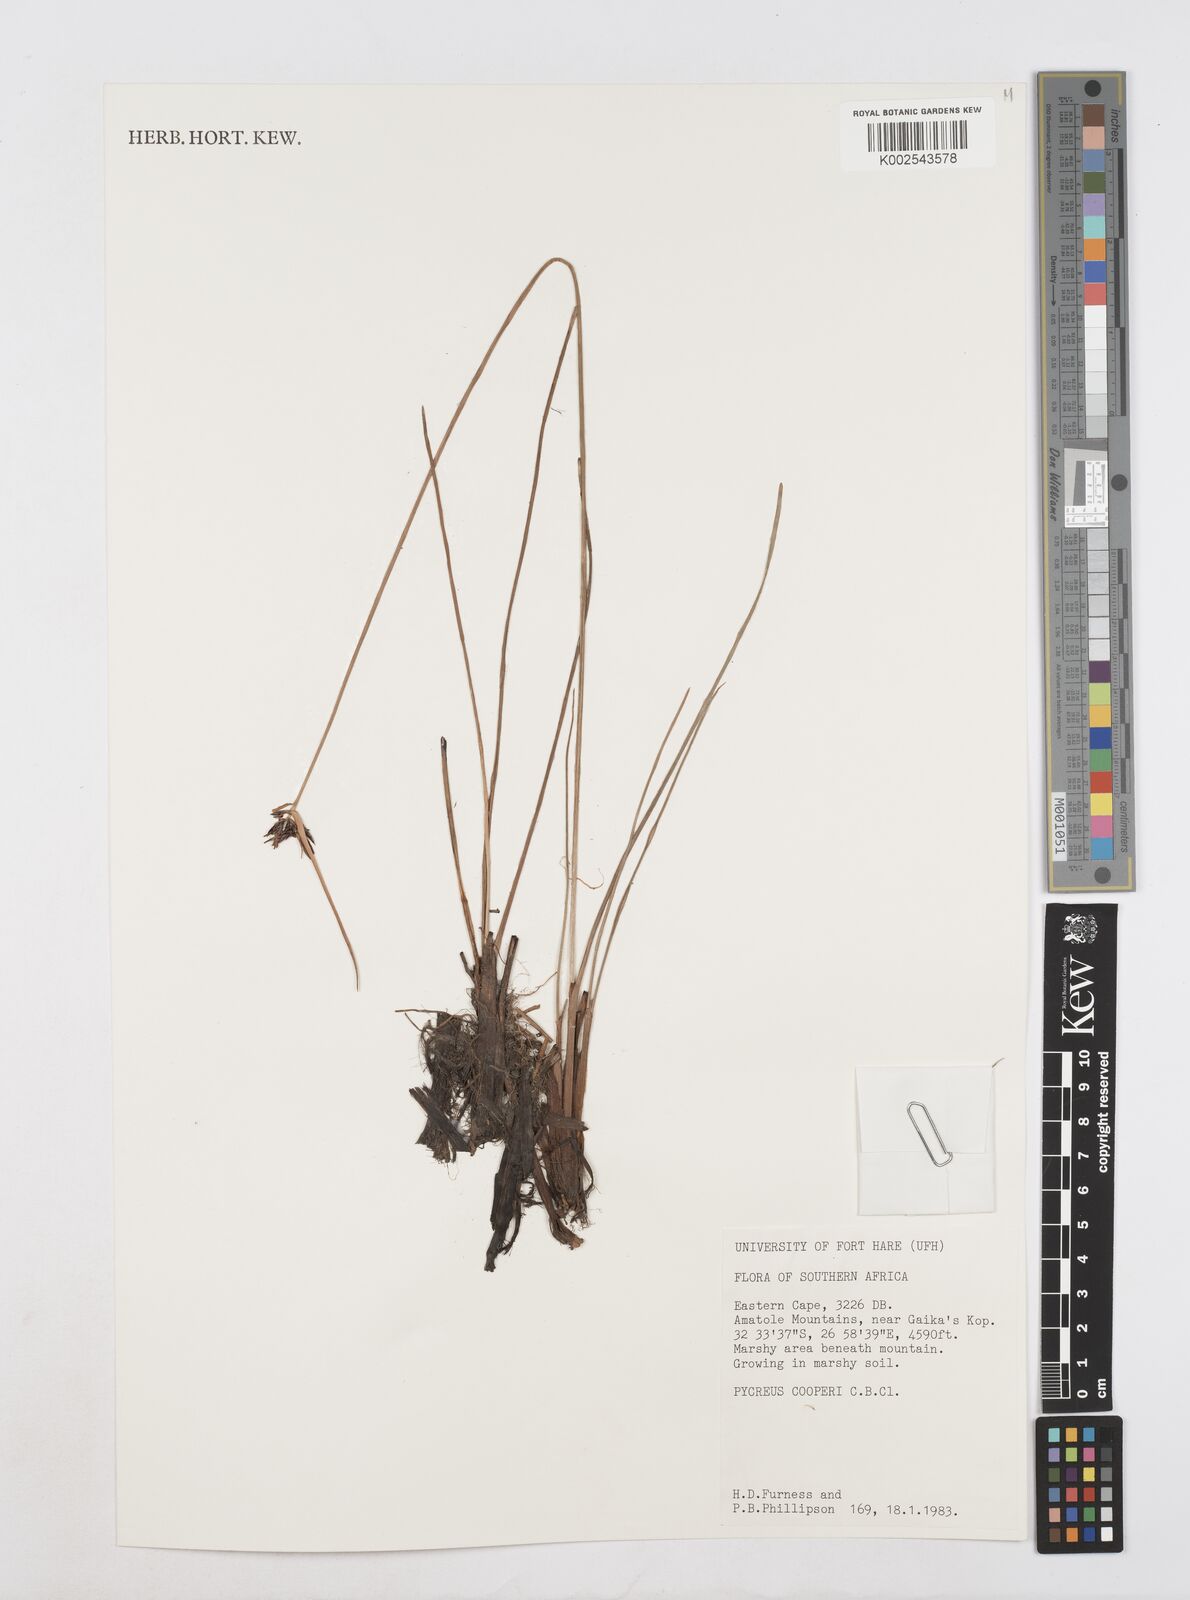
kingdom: Plantae
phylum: Tracheophyta
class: Liliopsida
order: Poales
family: Cyperaceae
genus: Cyperus
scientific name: Cyperus
